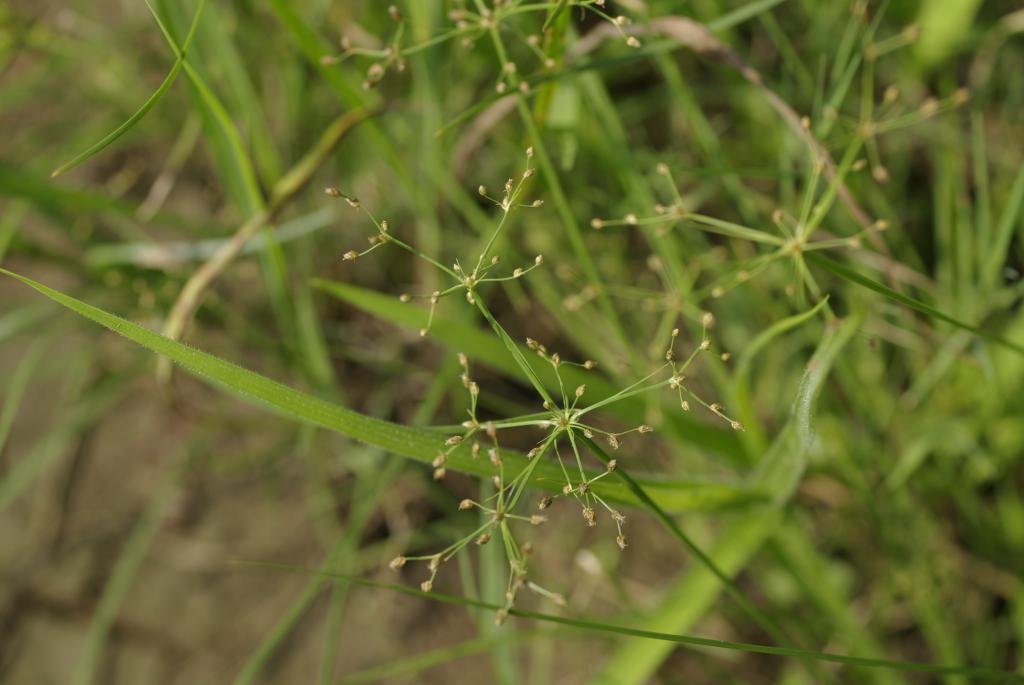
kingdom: Plantae
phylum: Tracheophyta
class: Liliopsida
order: Poales
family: Cyperaceae
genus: Fimbristylis
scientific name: Fimbristylis littoralis
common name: Fimbry
